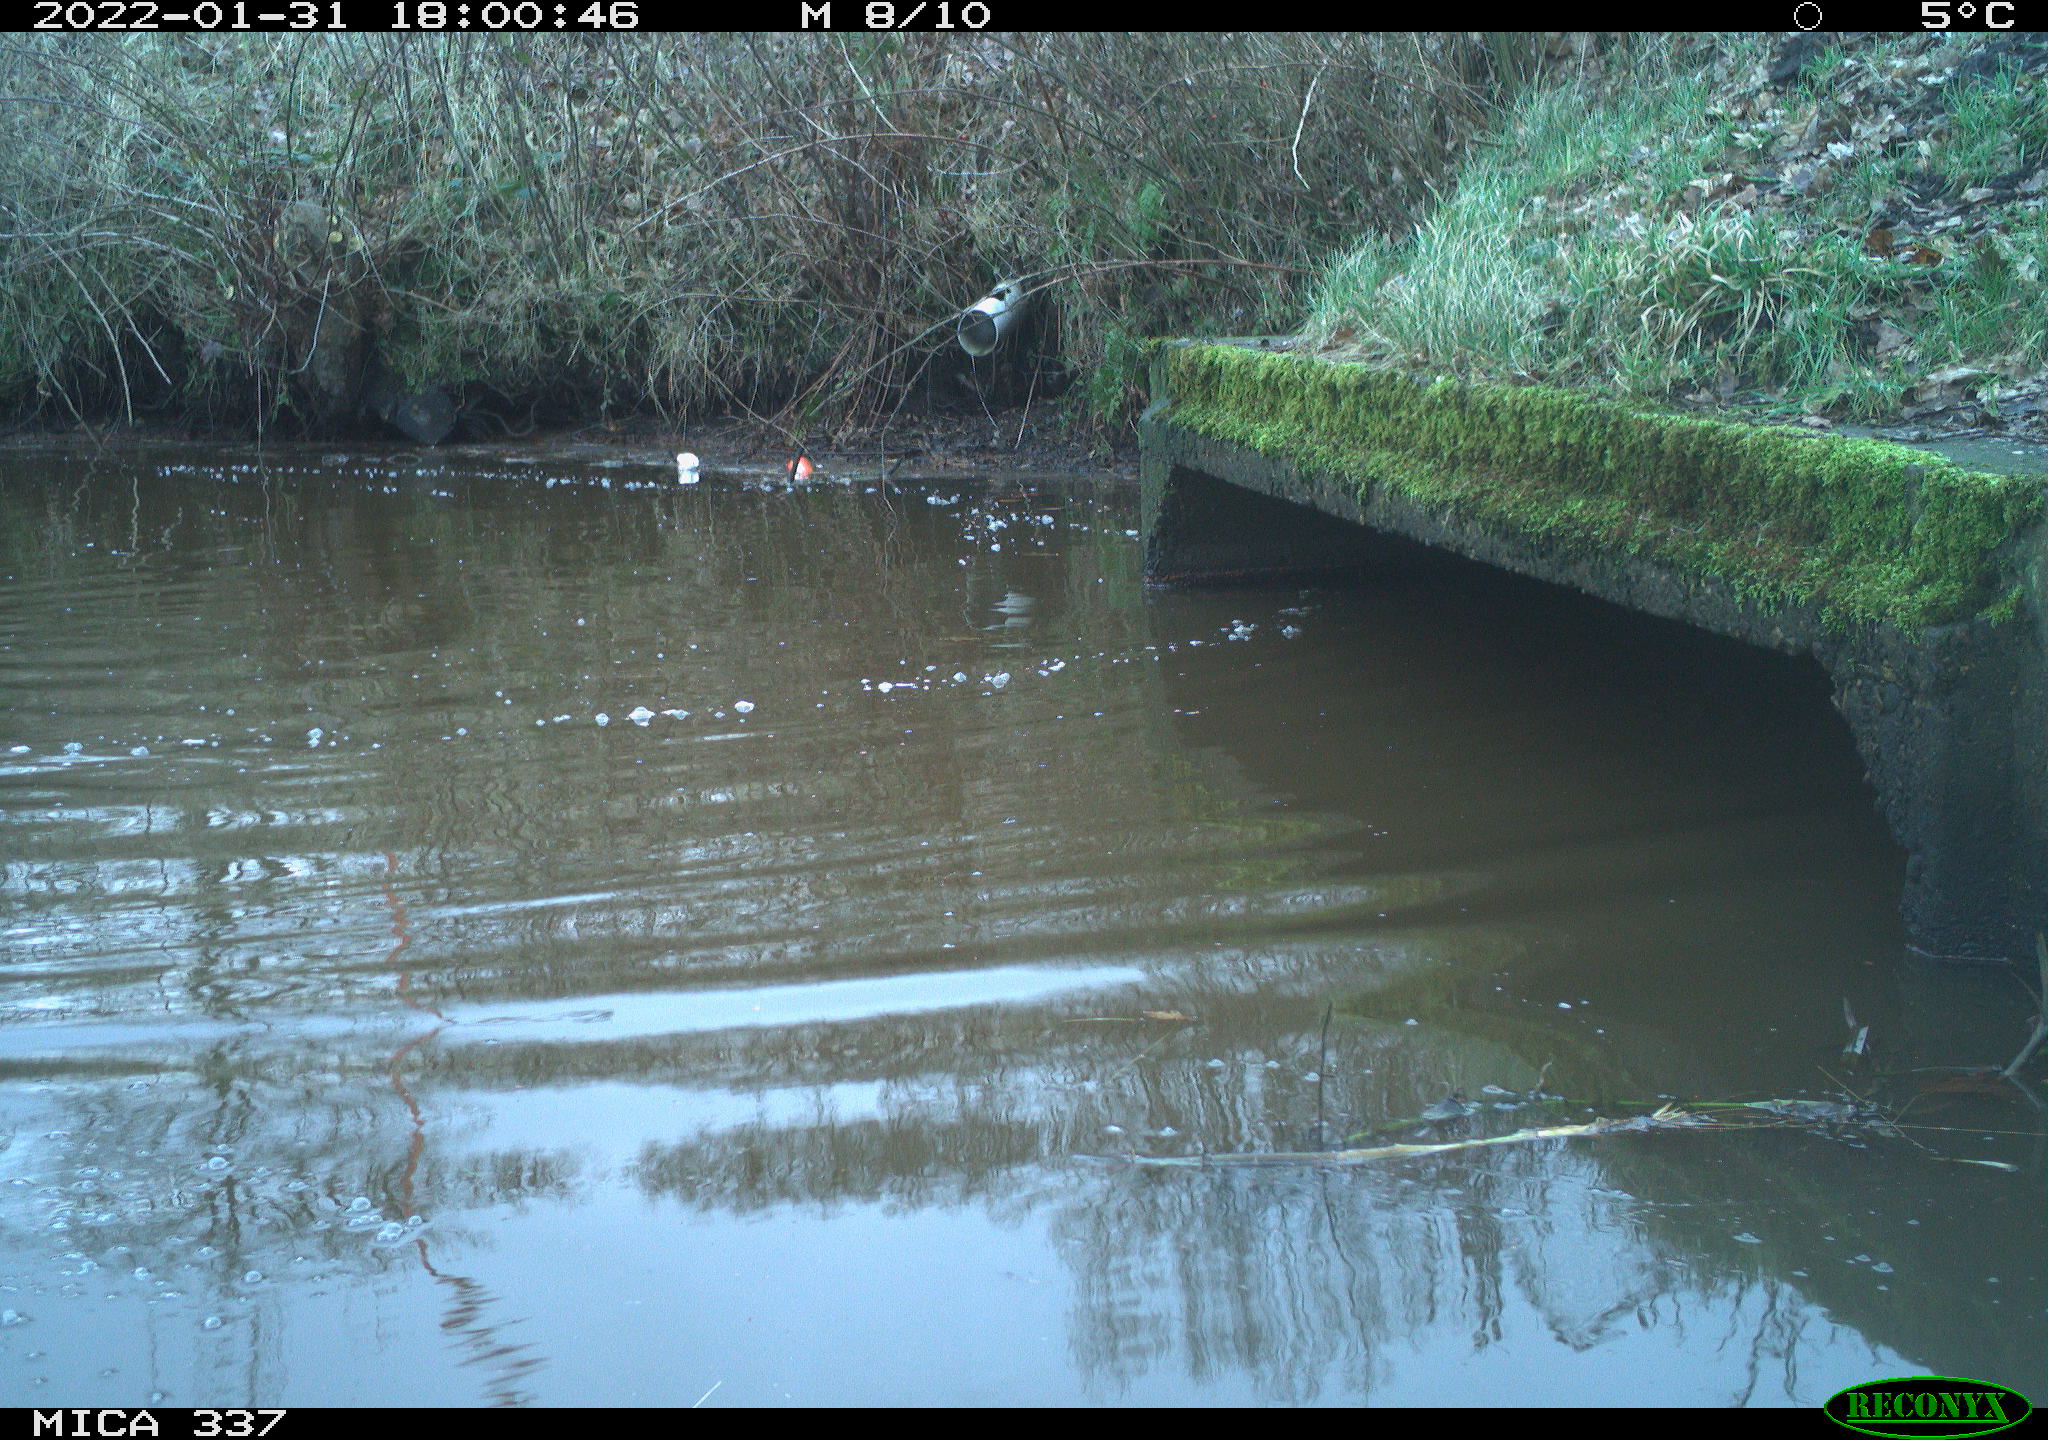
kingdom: Animalia
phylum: Chordata
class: Aves
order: Anseriformes
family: Anatidae
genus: Anas
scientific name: Anas platyrhynchos
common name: Mallard
